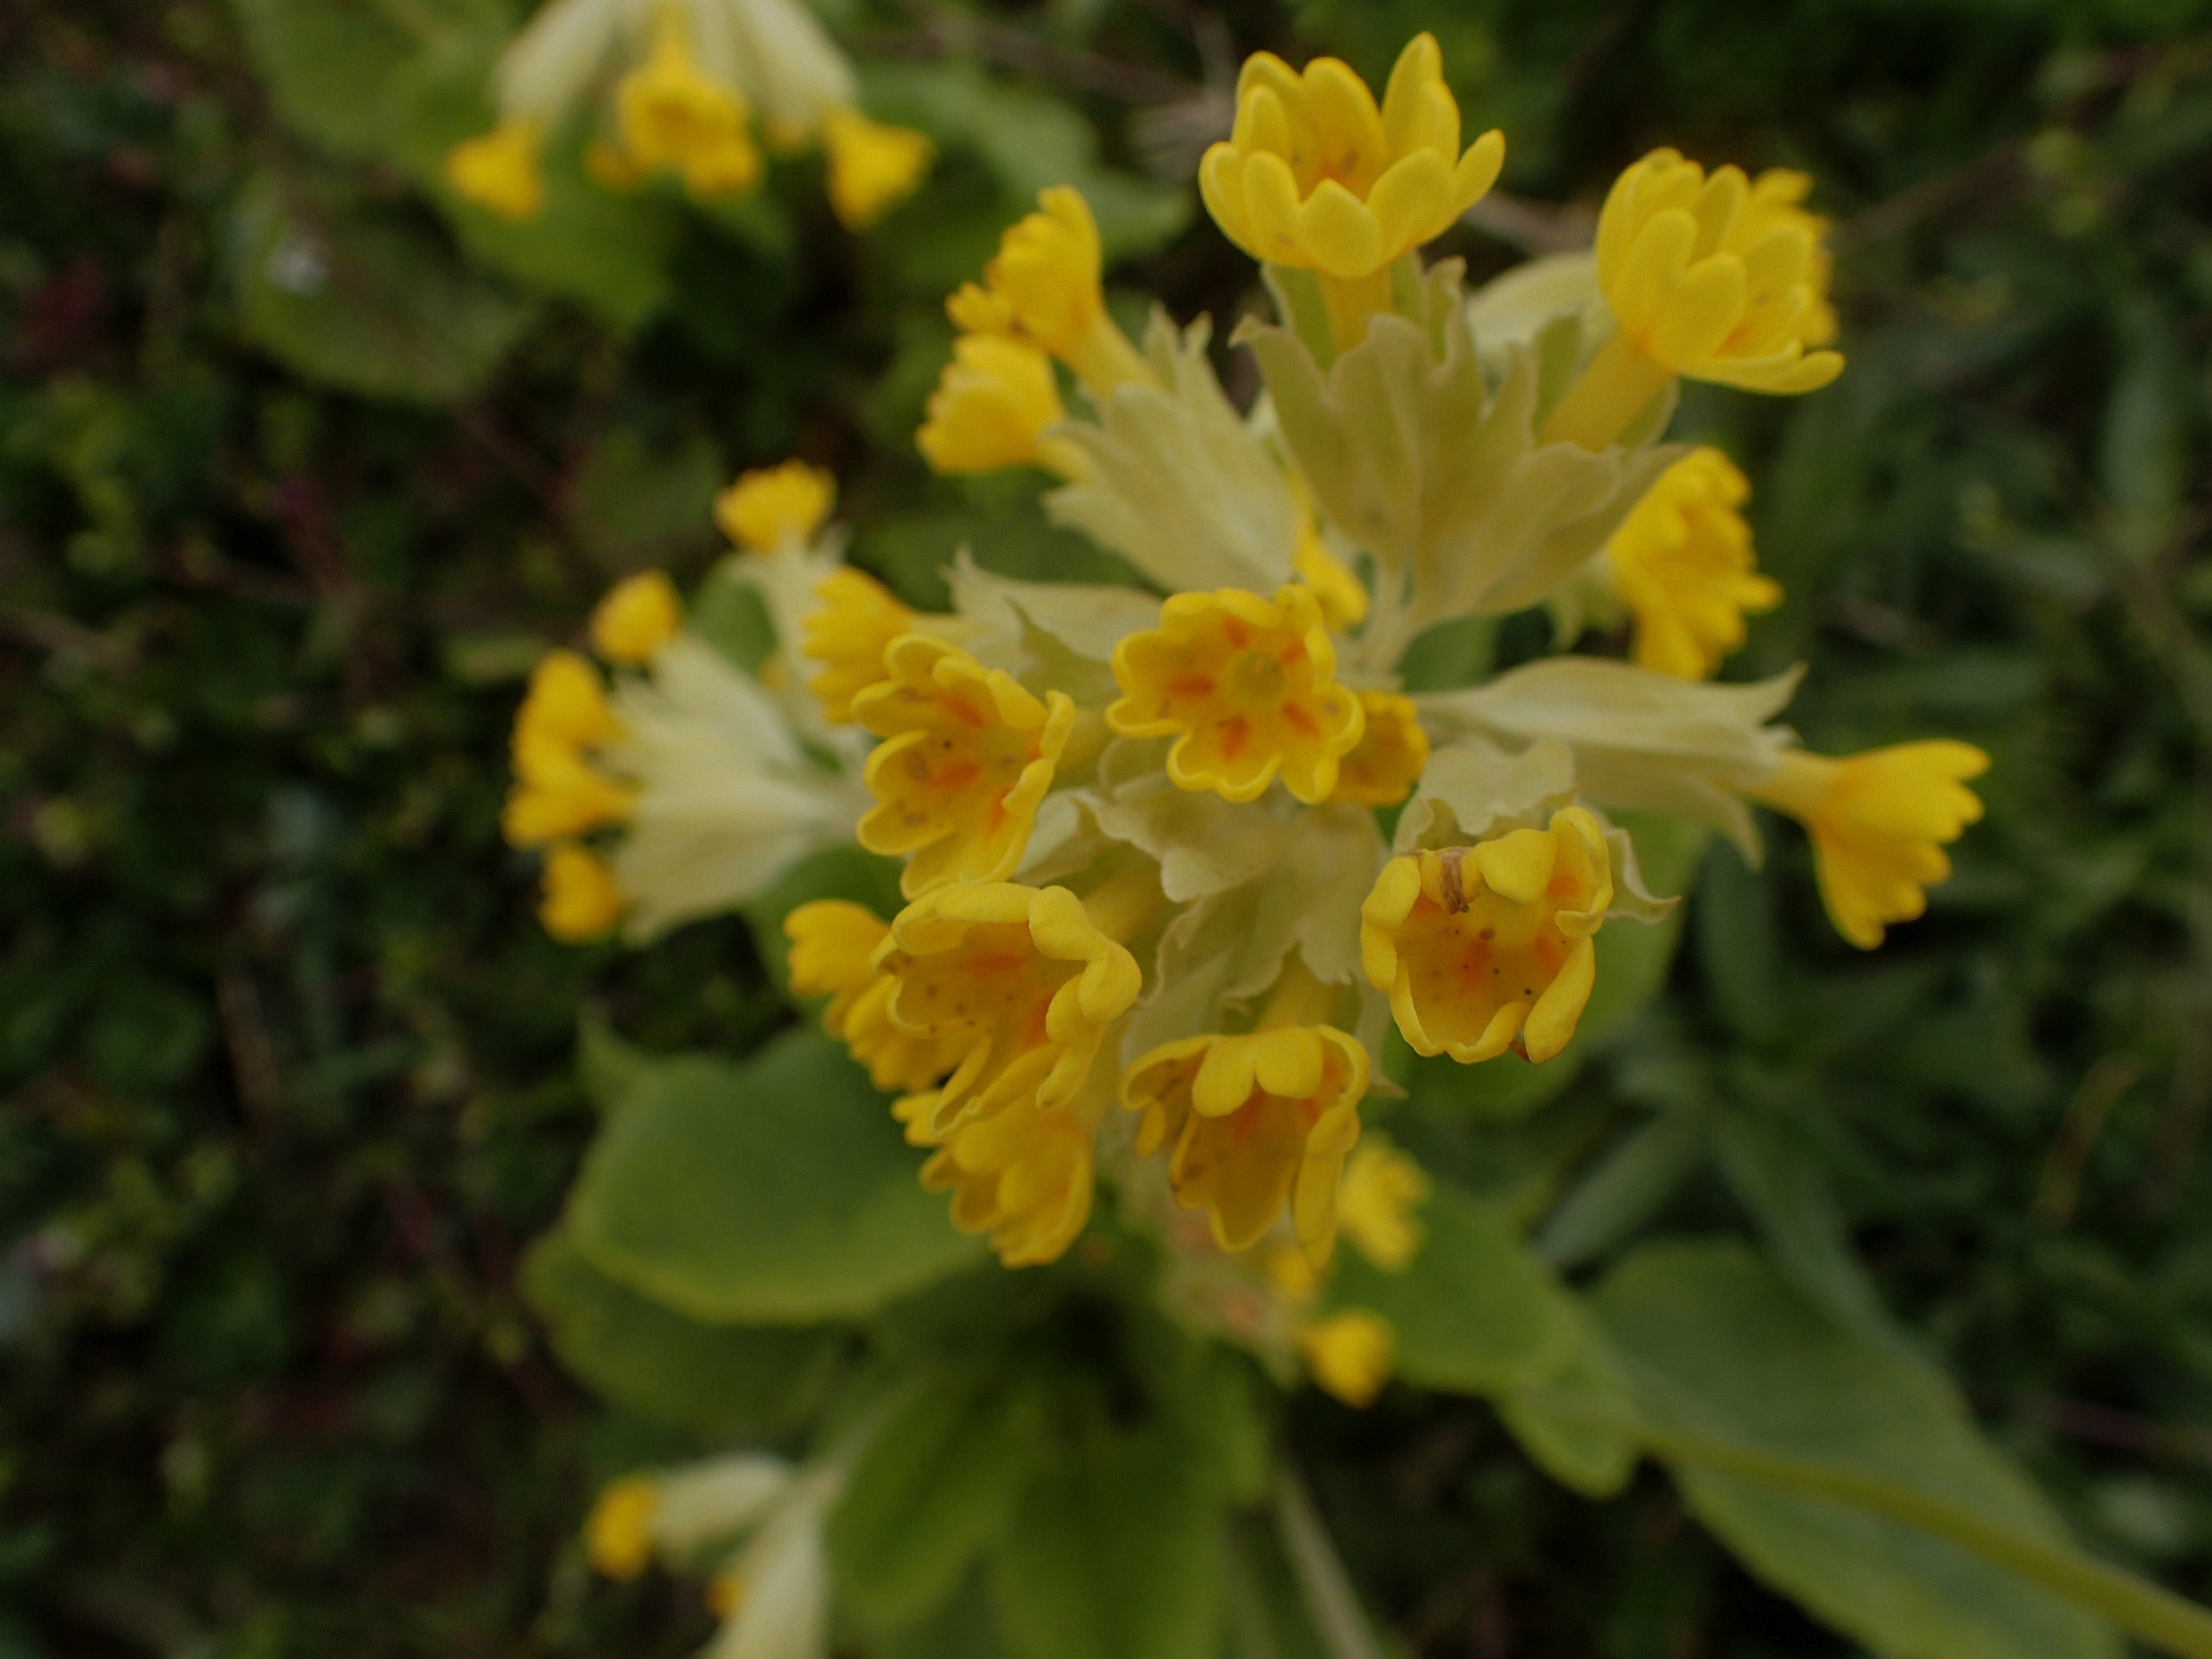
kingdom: Plantae
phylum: Tracheophyta
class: Magnoliopsida
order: Ericales
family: Primulaceae
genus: Primula
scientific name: Primula veris
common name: Hulkravet kodriver
